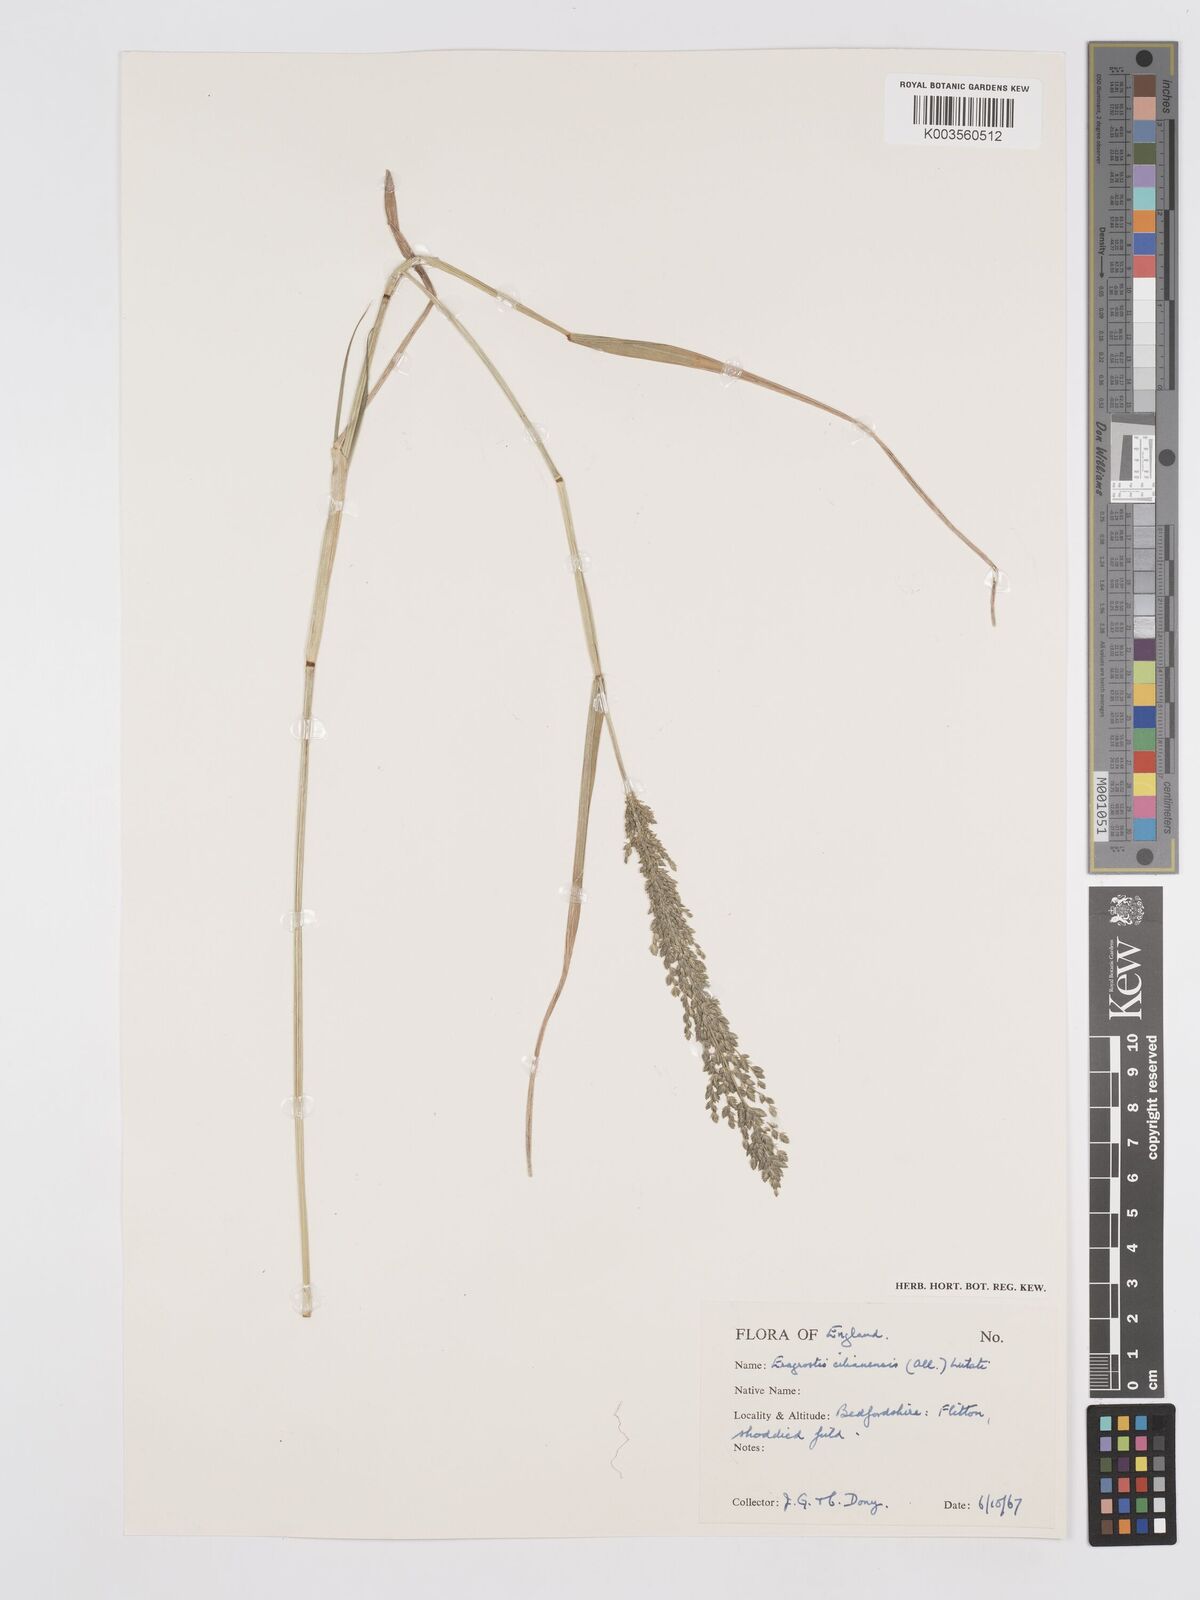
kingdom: Plantae
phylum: Tracheophyta
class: Liliopsida
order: Poales
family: Poaceae
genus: Eragrostis
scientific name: Eragrostis cilianensis
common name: Stinkgrass
